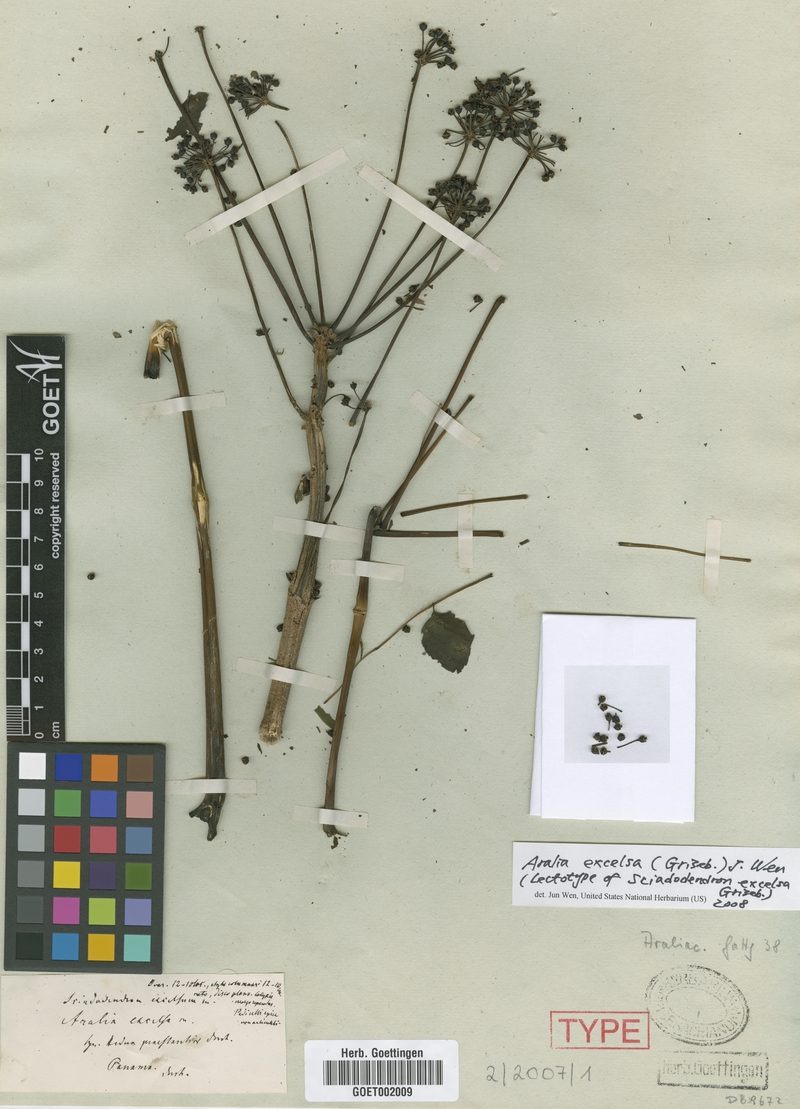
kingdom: Plantae
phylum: Tracheophyta
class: Magnoliopsida
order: Apiales
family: Araliaceae
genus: Aralia
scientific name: Aralia excelsa
